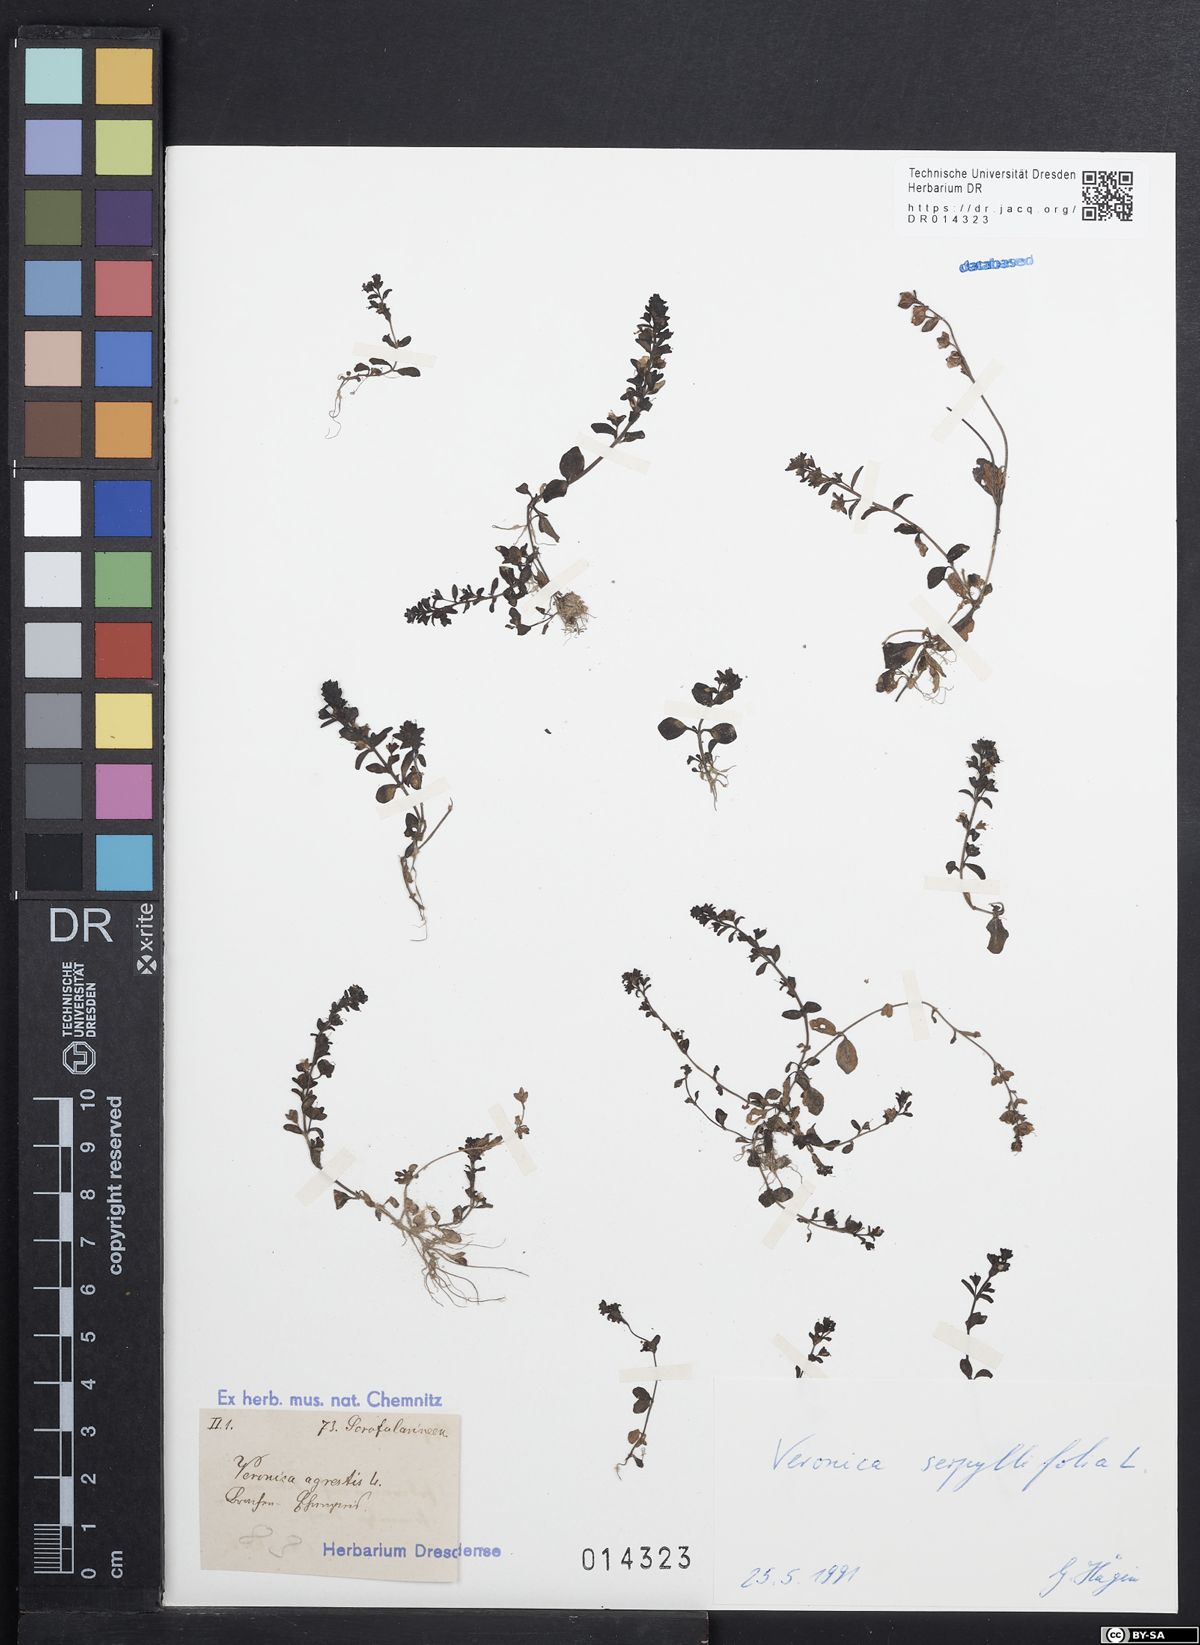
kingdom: Plantae
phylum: Tracheophyta
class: Magnoliopsida
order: Lamiales
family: Plantaginaceae
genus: Veronica
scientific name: Veronica serpyllifolia
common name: Thyme-leaved speedwell
